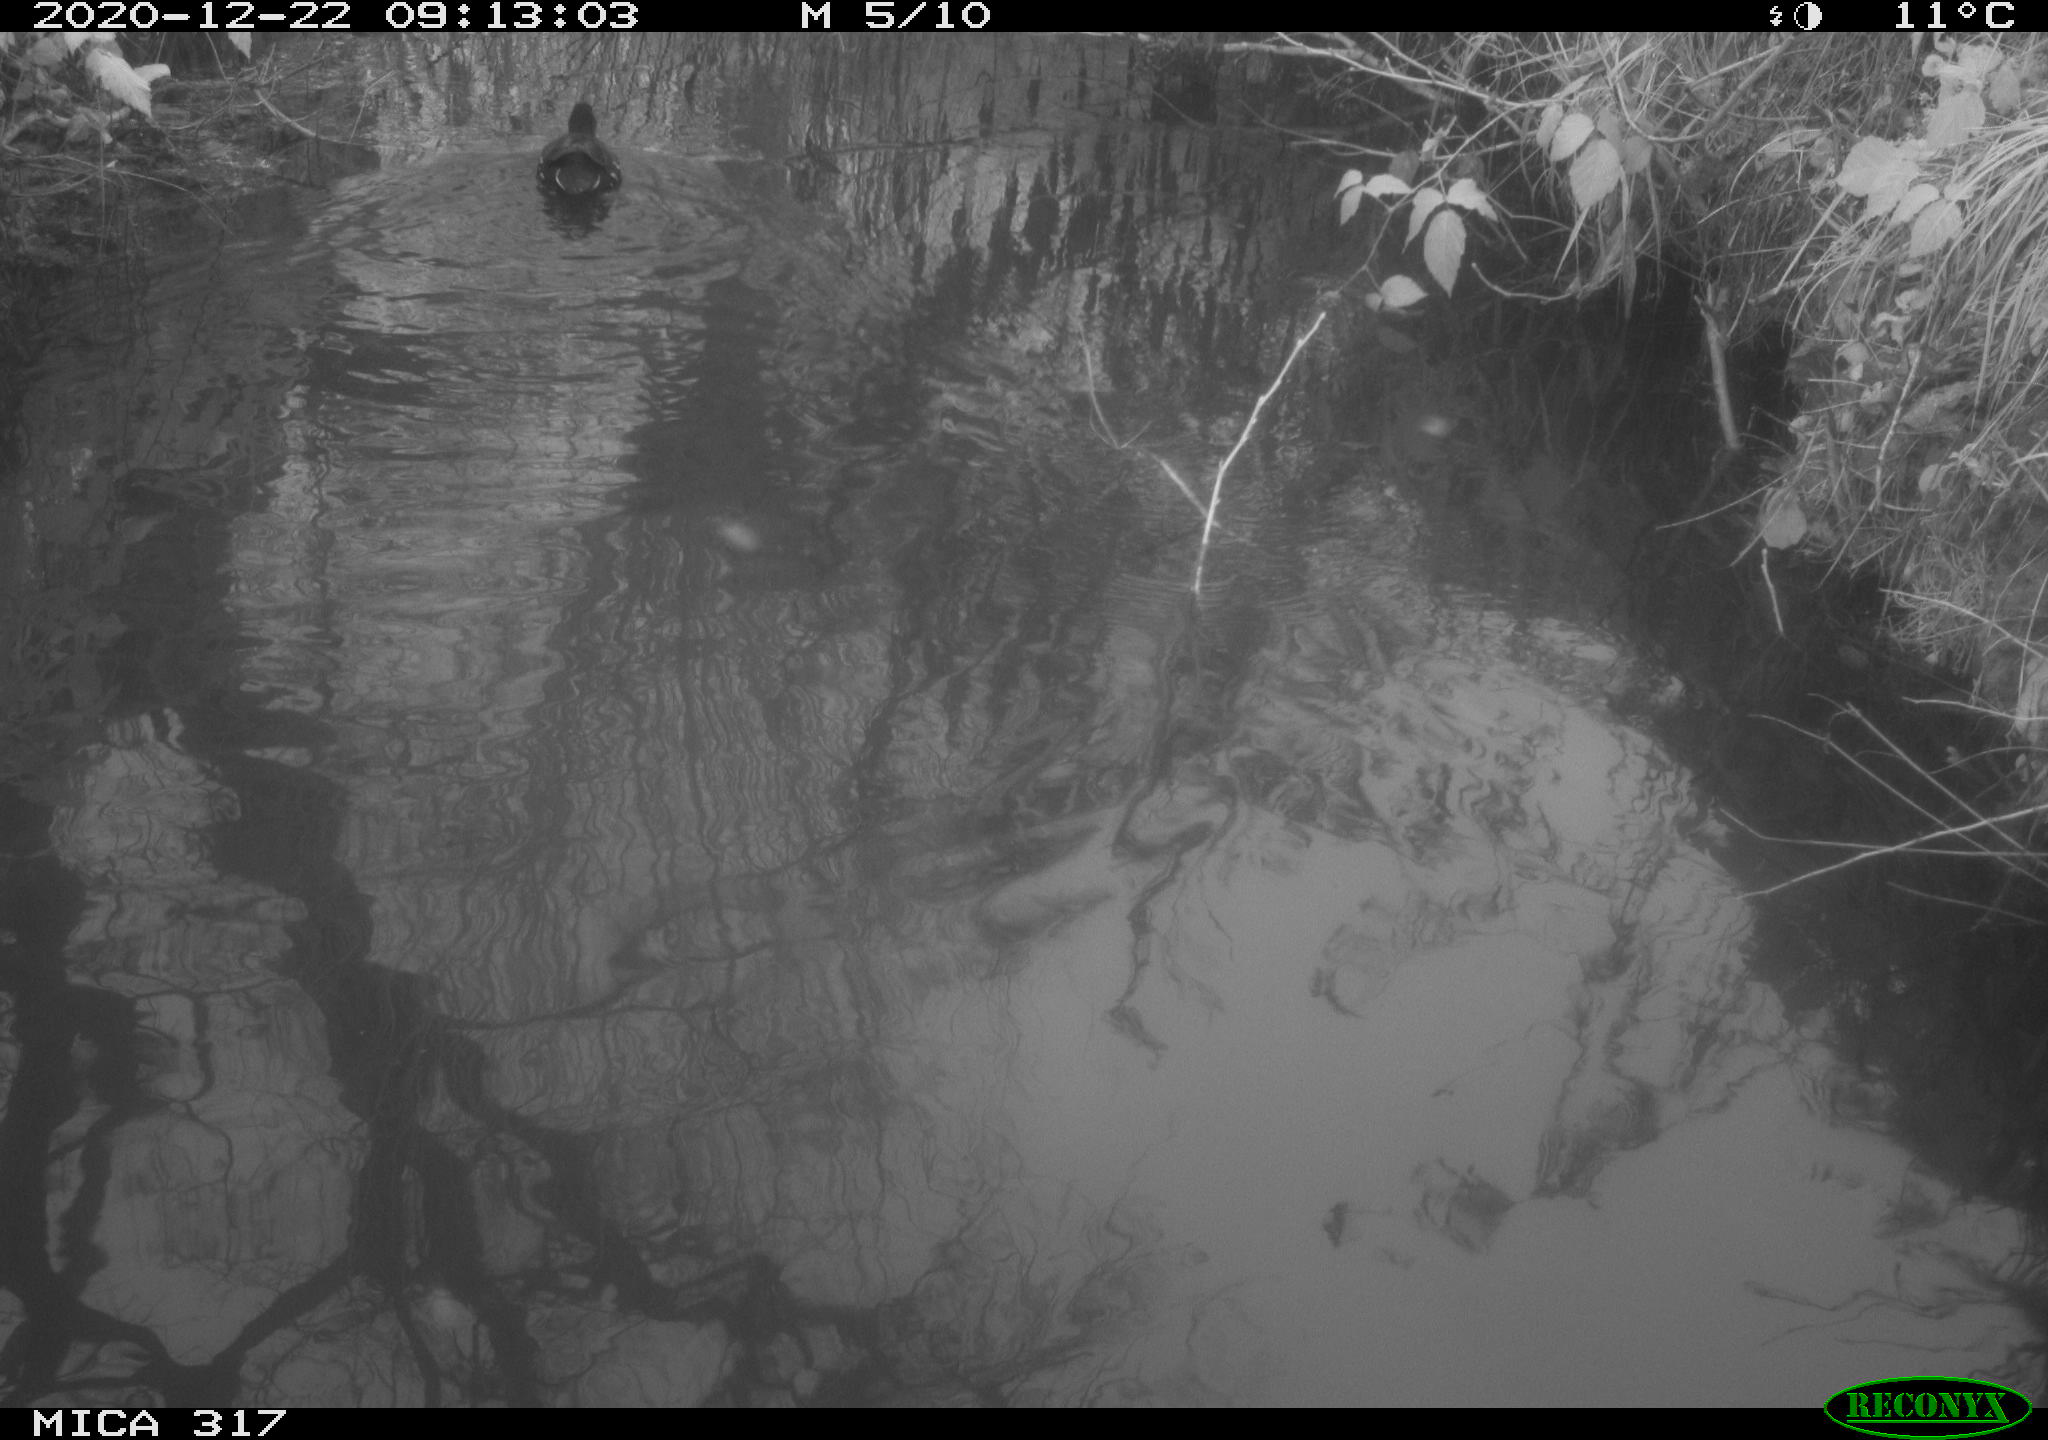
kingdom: Animalia
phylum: Chordata
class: Aves
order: Gruiformes
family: Rallidae
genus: Gallinula
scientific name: Gallinula chloropus
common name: Common moorhen
